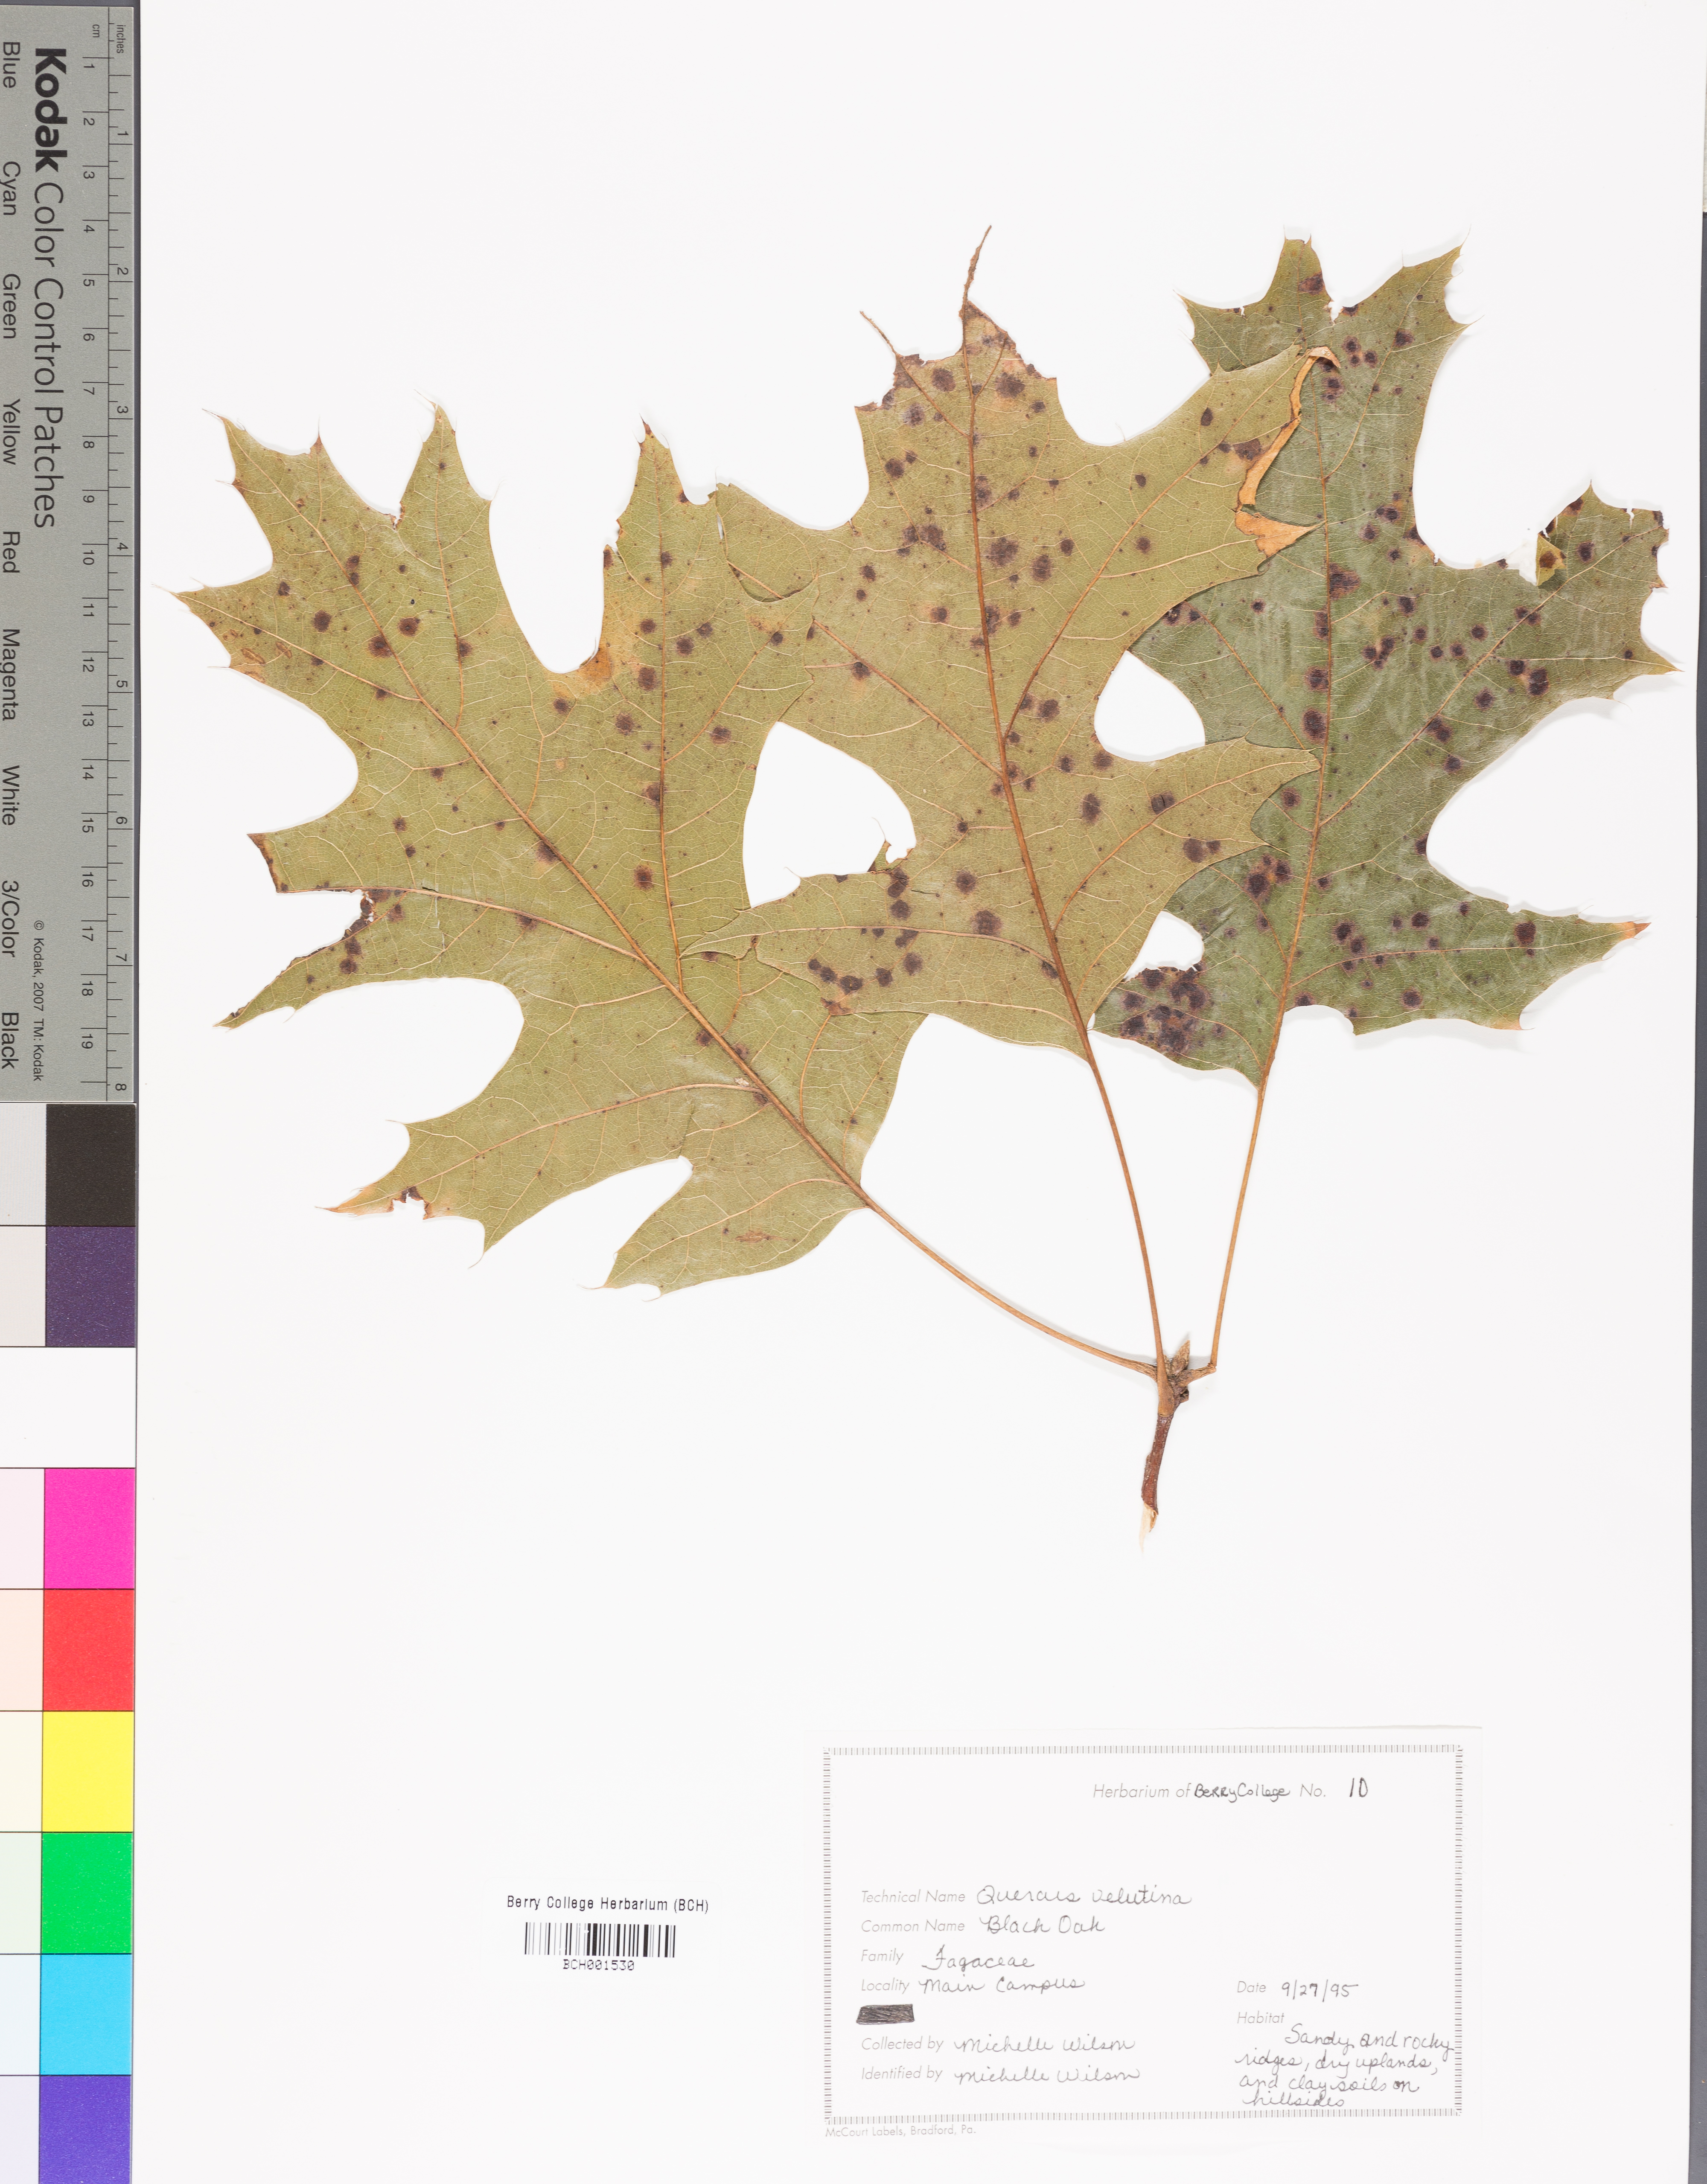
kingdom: Plantae
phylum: Tracheophyta
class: Magnoliopsida
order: Fagales
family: Fagaceae
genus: Quercus
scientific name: Quercus velutina
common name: Black oak
